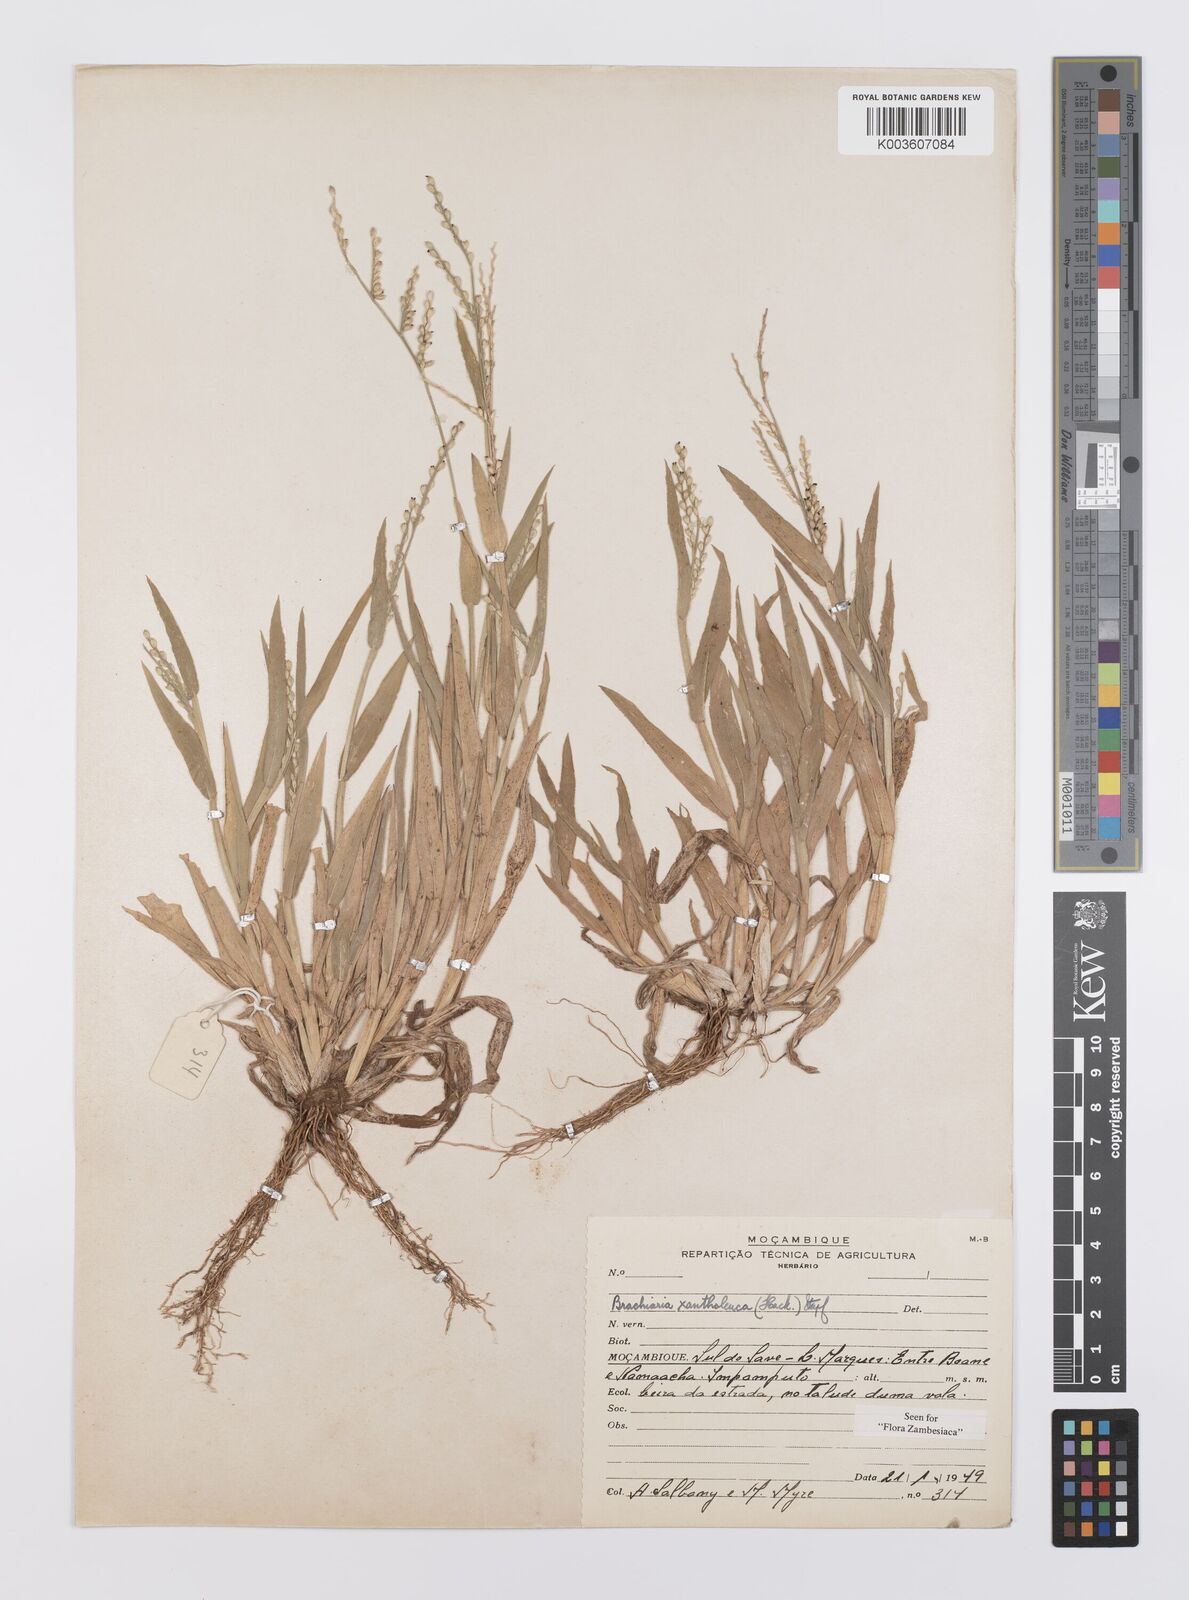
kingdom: Plantae
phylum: Tracheophyta
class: Liliopsida
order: Poales
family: Poaceae
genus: Urochloa
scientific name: Urochloa xantholeuca
